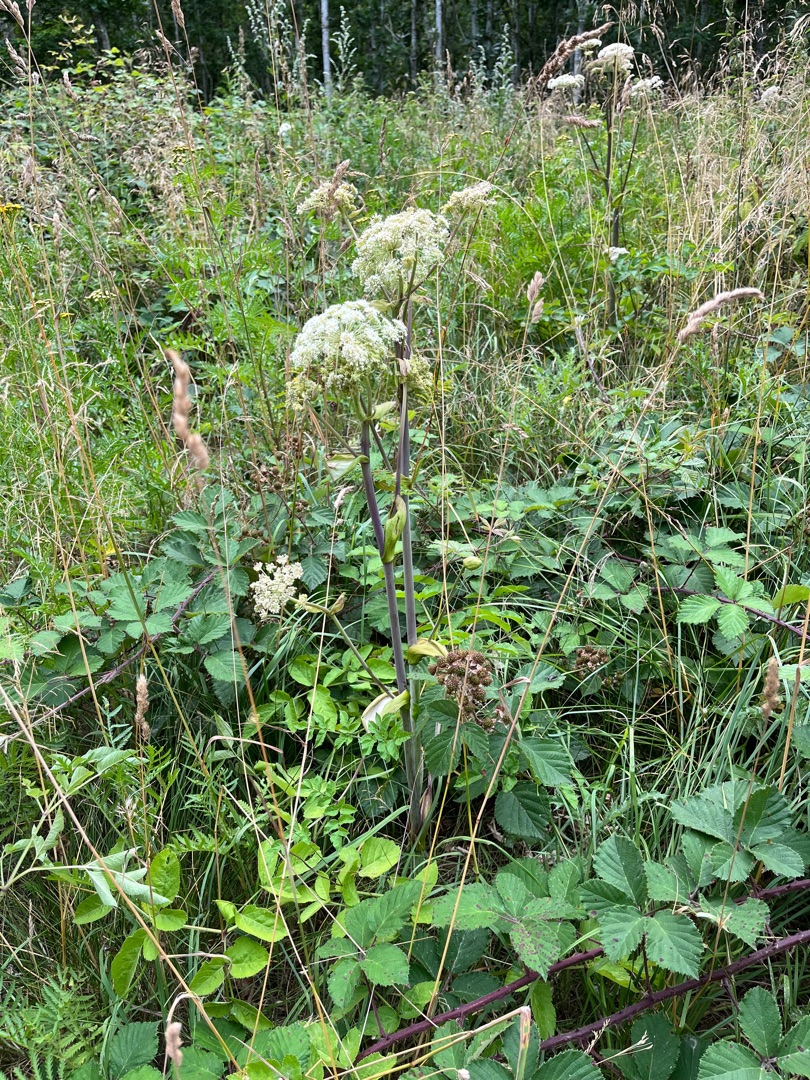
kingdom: Plantae
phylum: Tracheophyta
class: Magnoliopsida
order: Apiales
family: Apiaceae
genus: Angelica
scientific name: Angelica sylvestris
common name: Angelik
